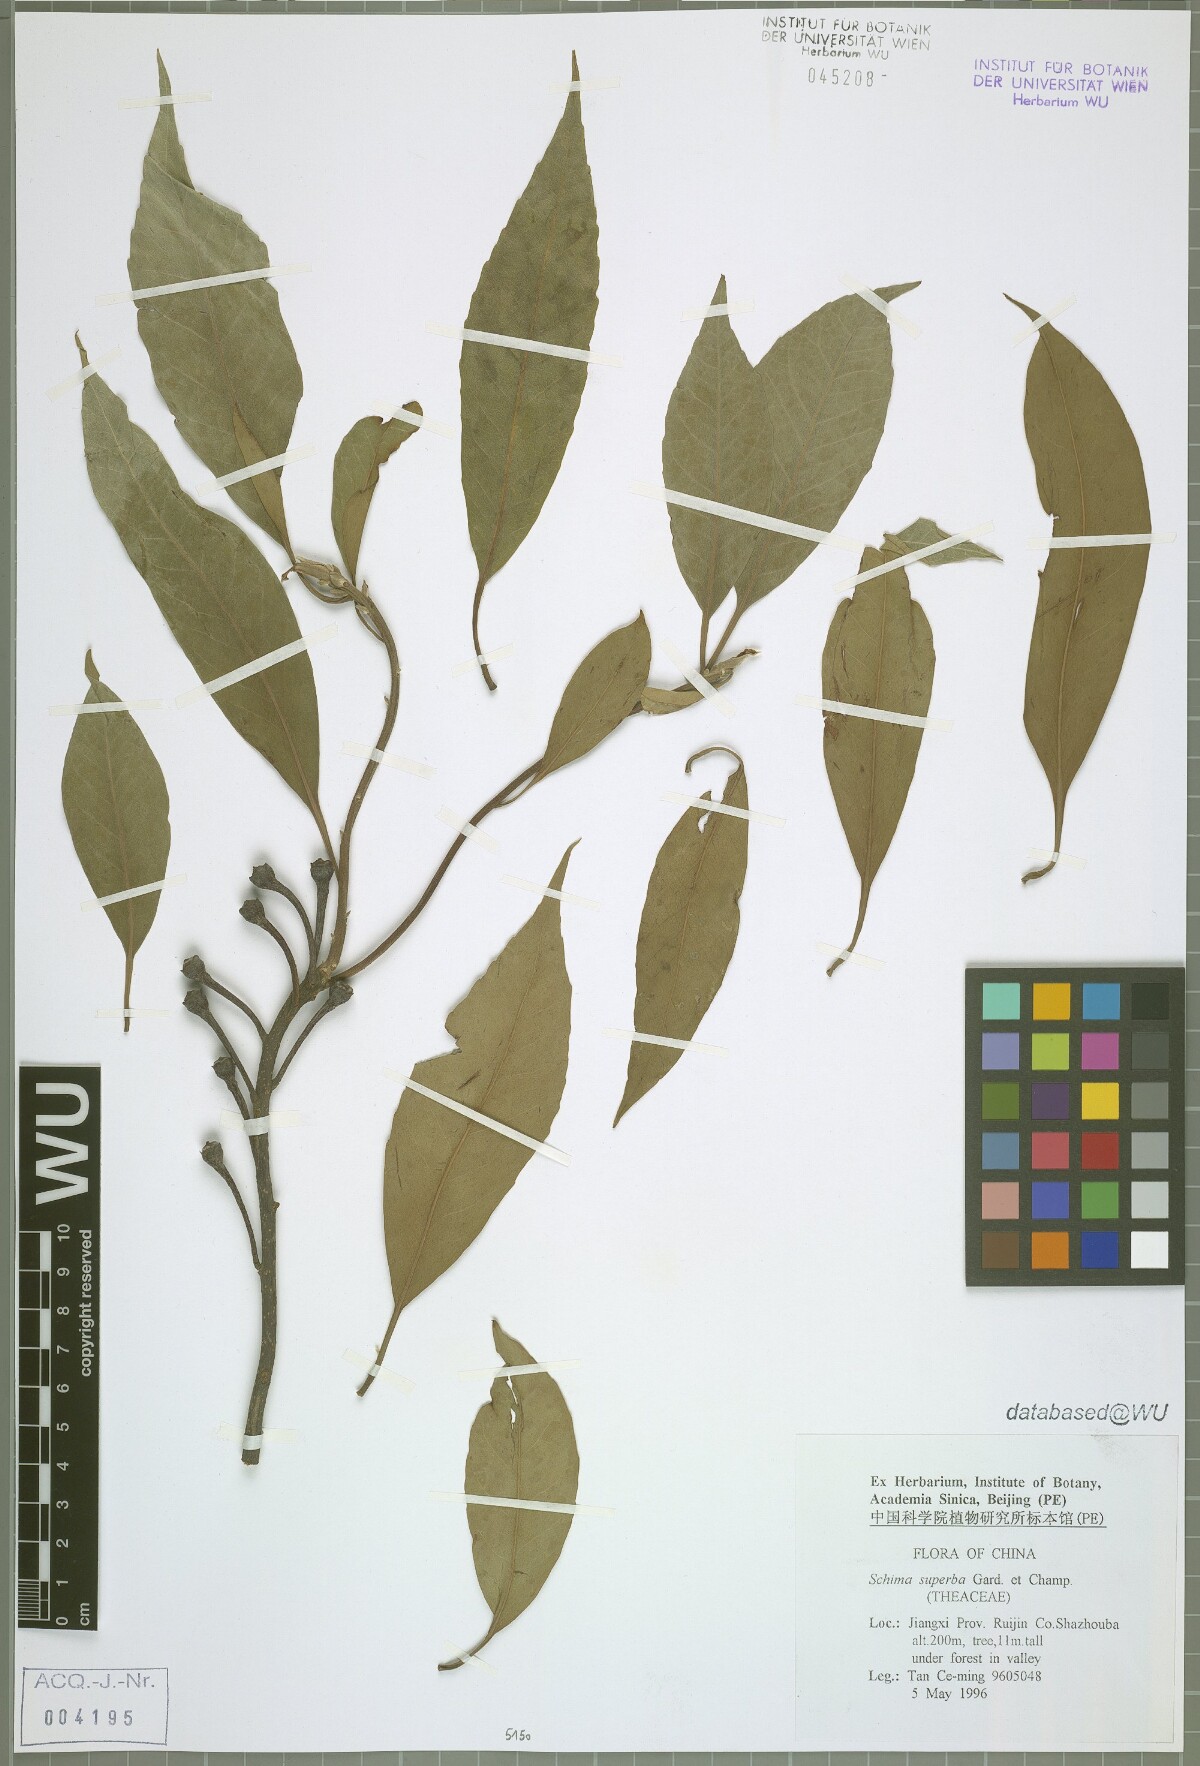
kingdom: Plantae
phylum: Tracheophyta
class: Magnoliopsida
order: Ericales
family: Theaceae
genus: Schima
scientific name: Schima superba
